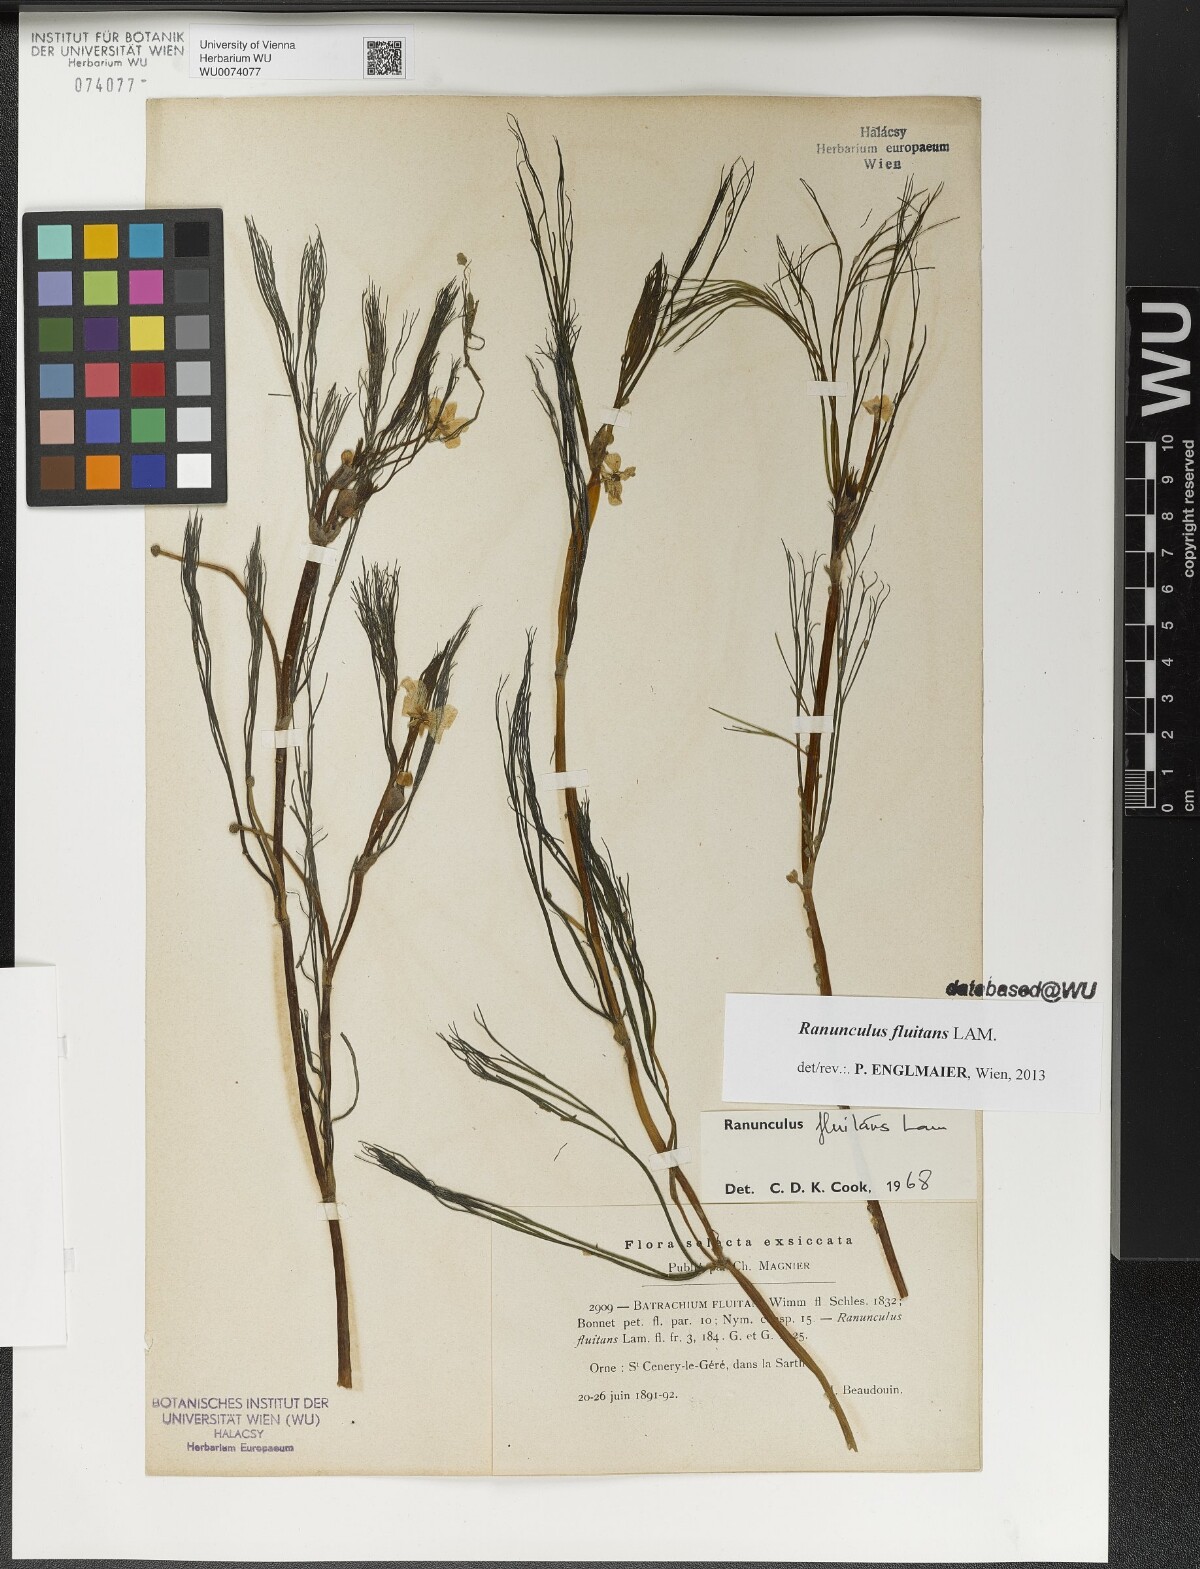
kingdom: Plantae
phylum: Tracheophyta
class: Magnoliopsida
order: Ranunculales
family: Ranunculaceae
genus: Ranunculus
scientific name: Ranunculus fluitans
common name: River water-crowfoot
